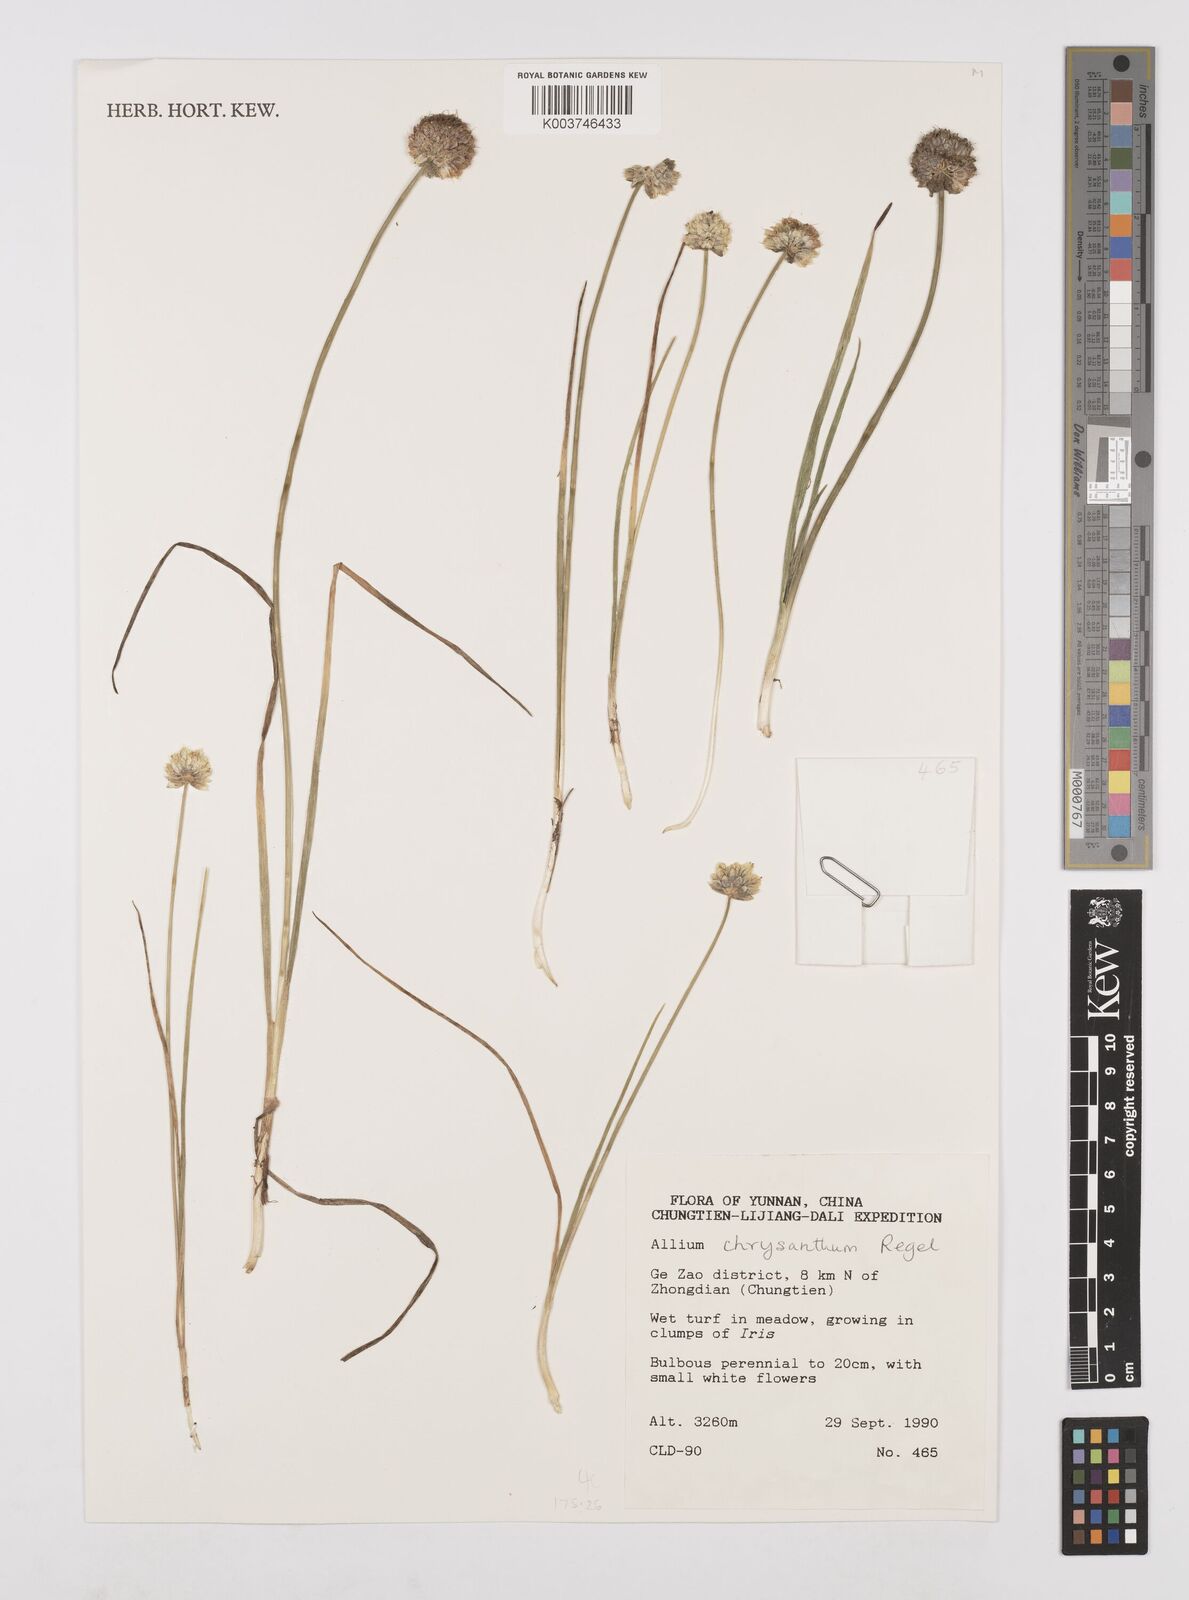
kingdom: Plantae
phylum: Tracheophyta
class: Liliopsida
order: Asparagales
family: Amaryllidaceae
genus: Allium
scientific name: Allium chrysanthum
